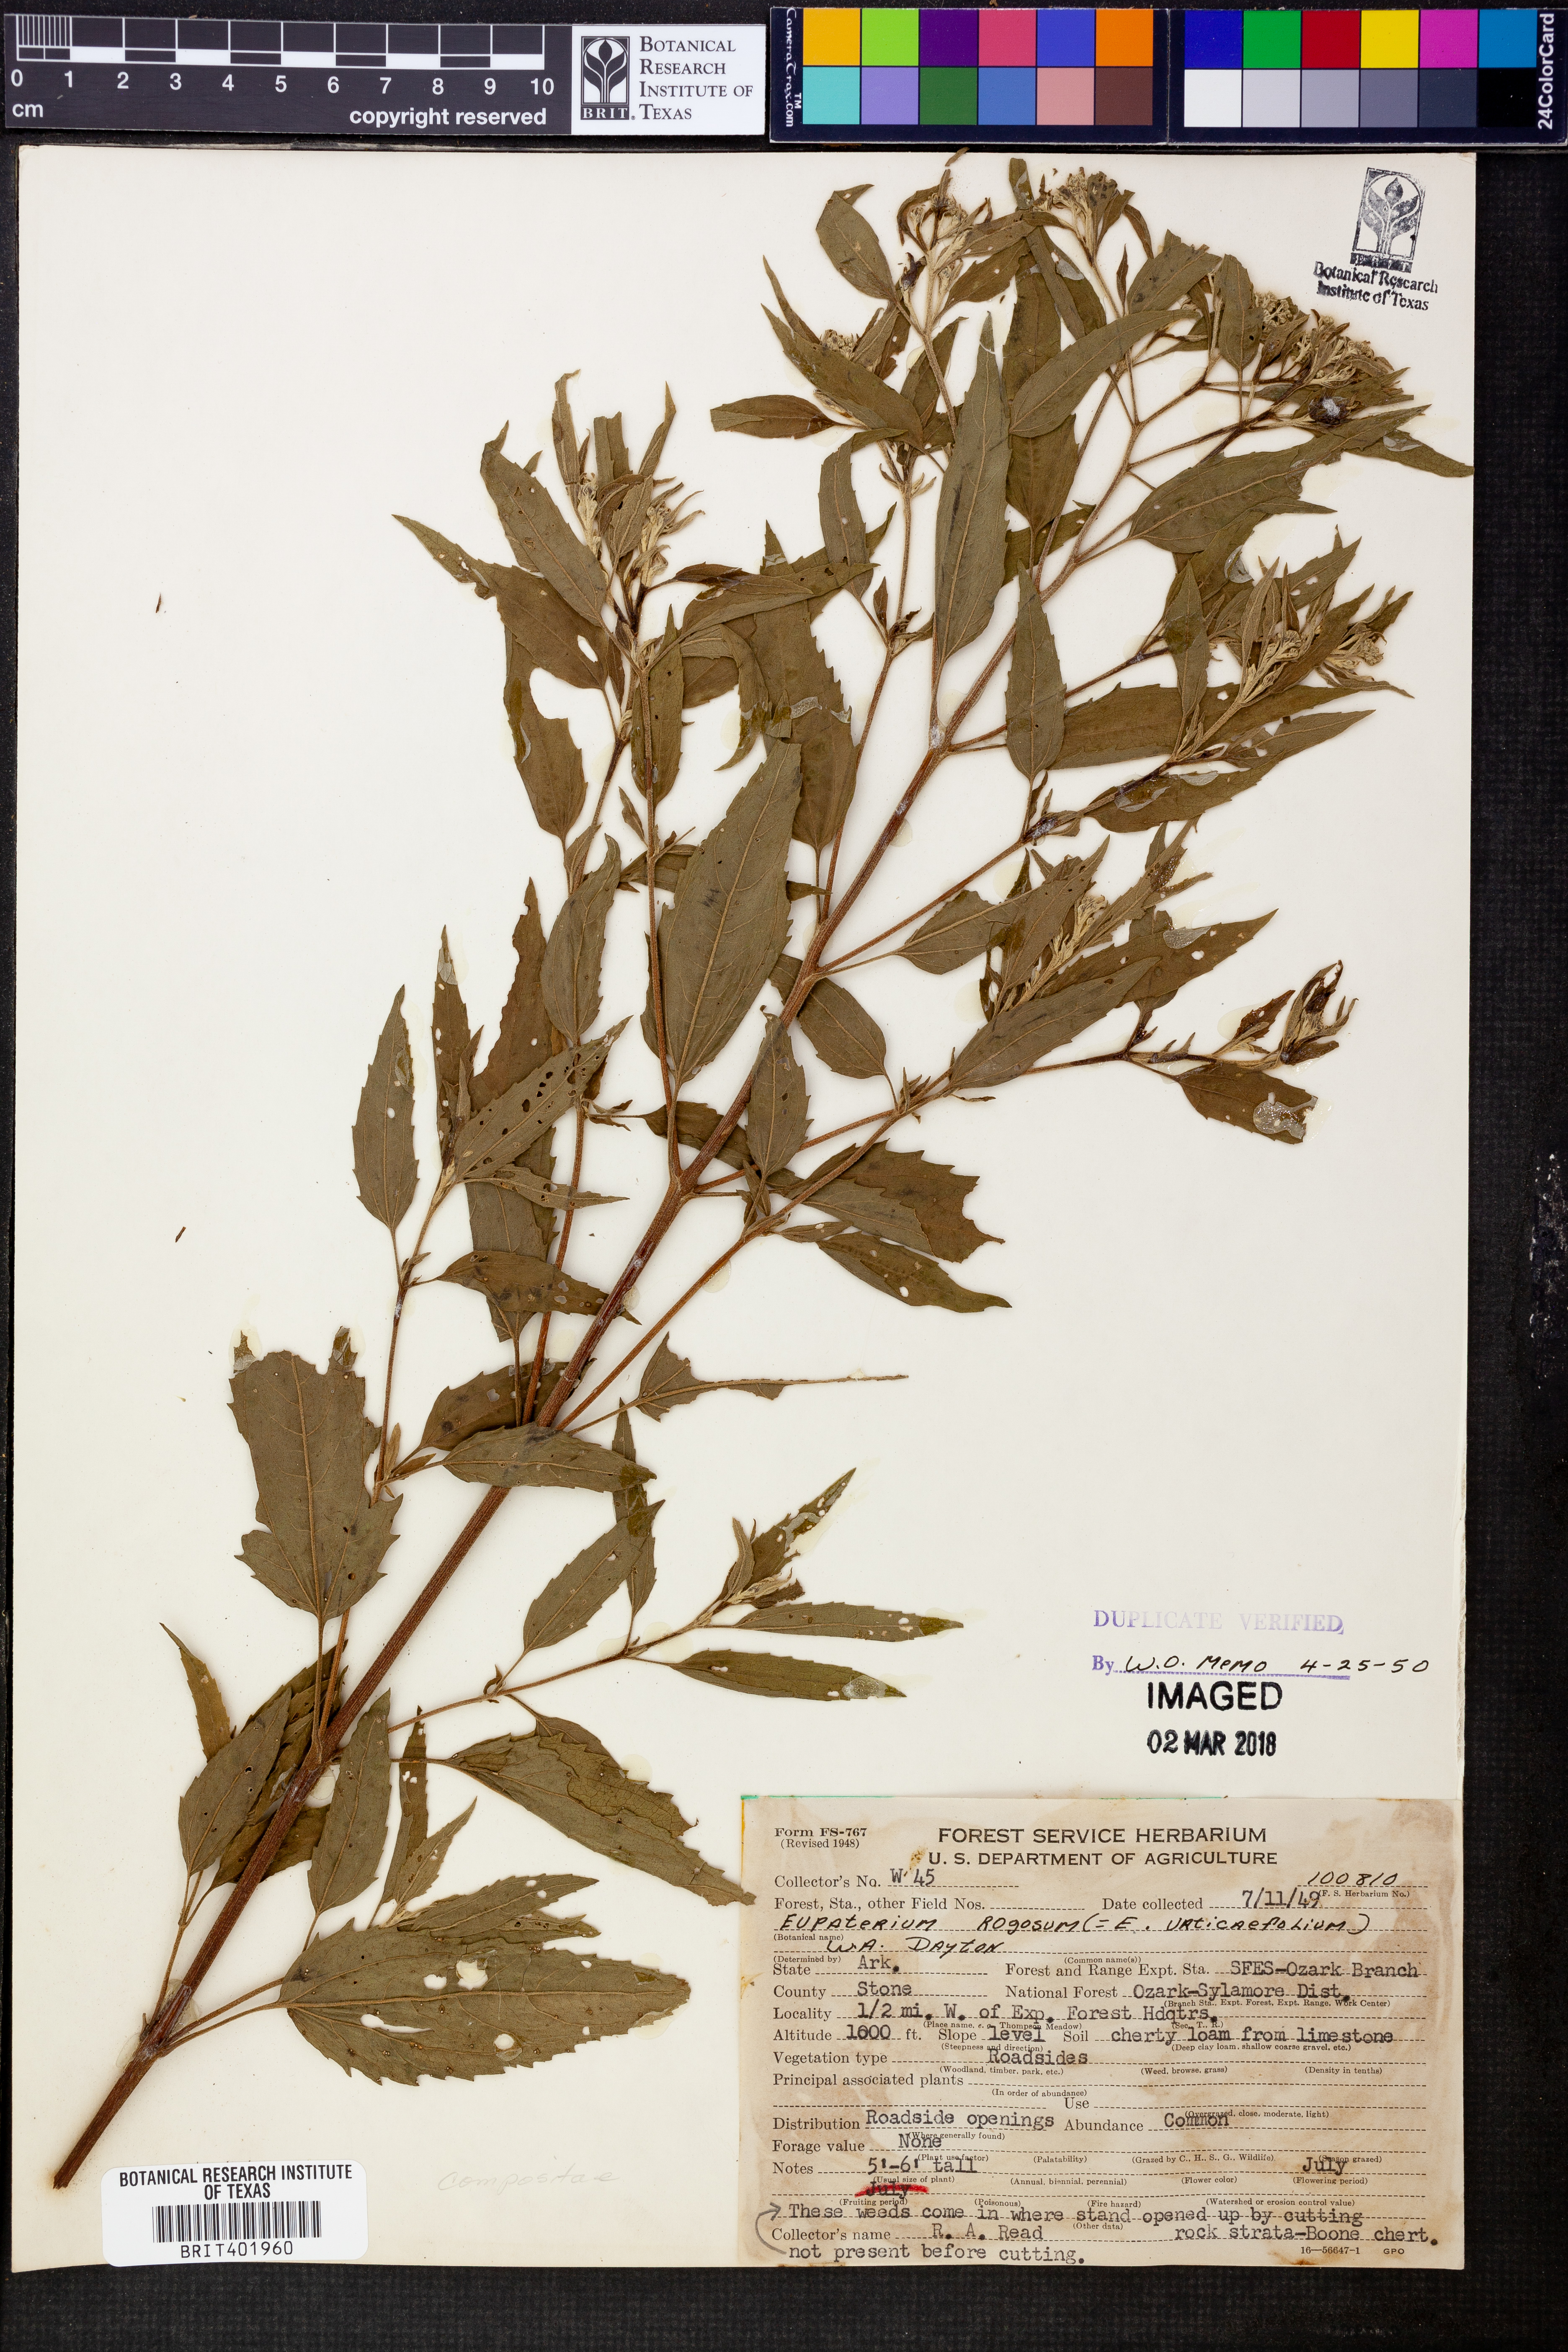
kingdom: Plantae
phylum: Tracheophyta
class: Magnoliopsida
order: Asterales
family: Asteraceae
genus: Cronquistianthus
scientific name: Cronquistianthus bulliferus
